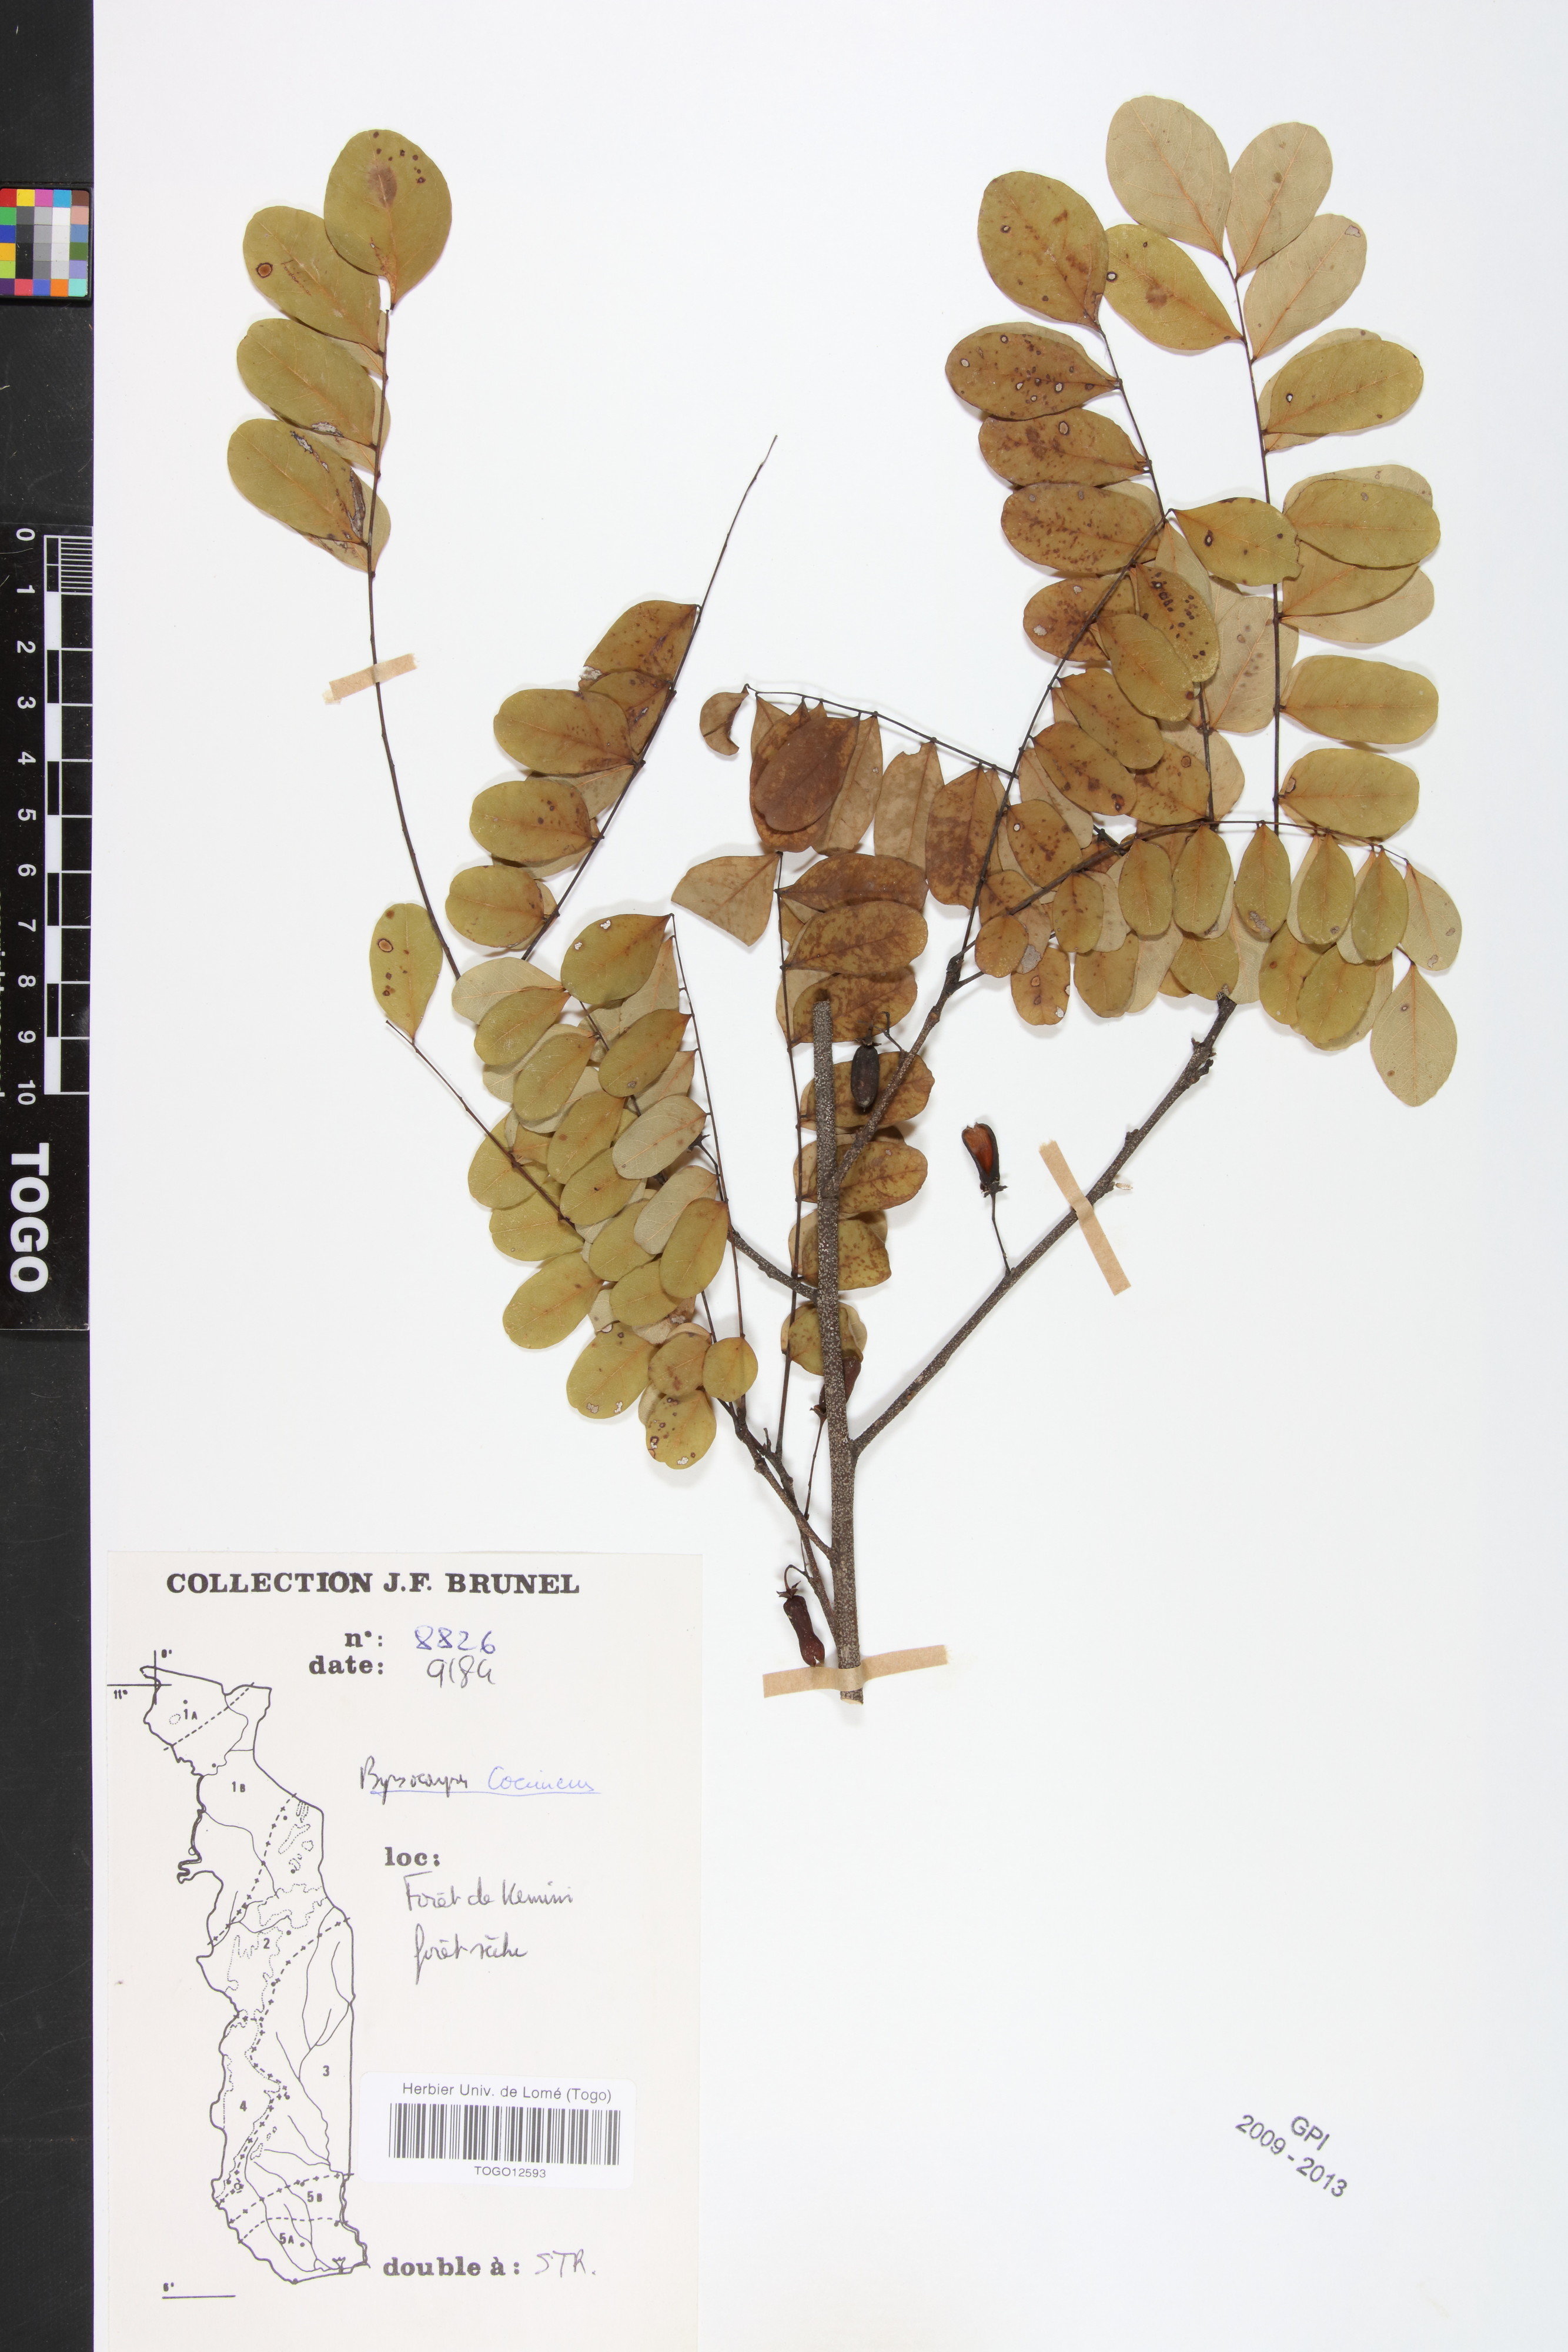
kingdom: Plantae
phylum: Tracheophyta
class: Magnoliopsida
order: Oxalidales
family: Connaraceae
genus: Rourea
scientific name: Rourea coccinea
